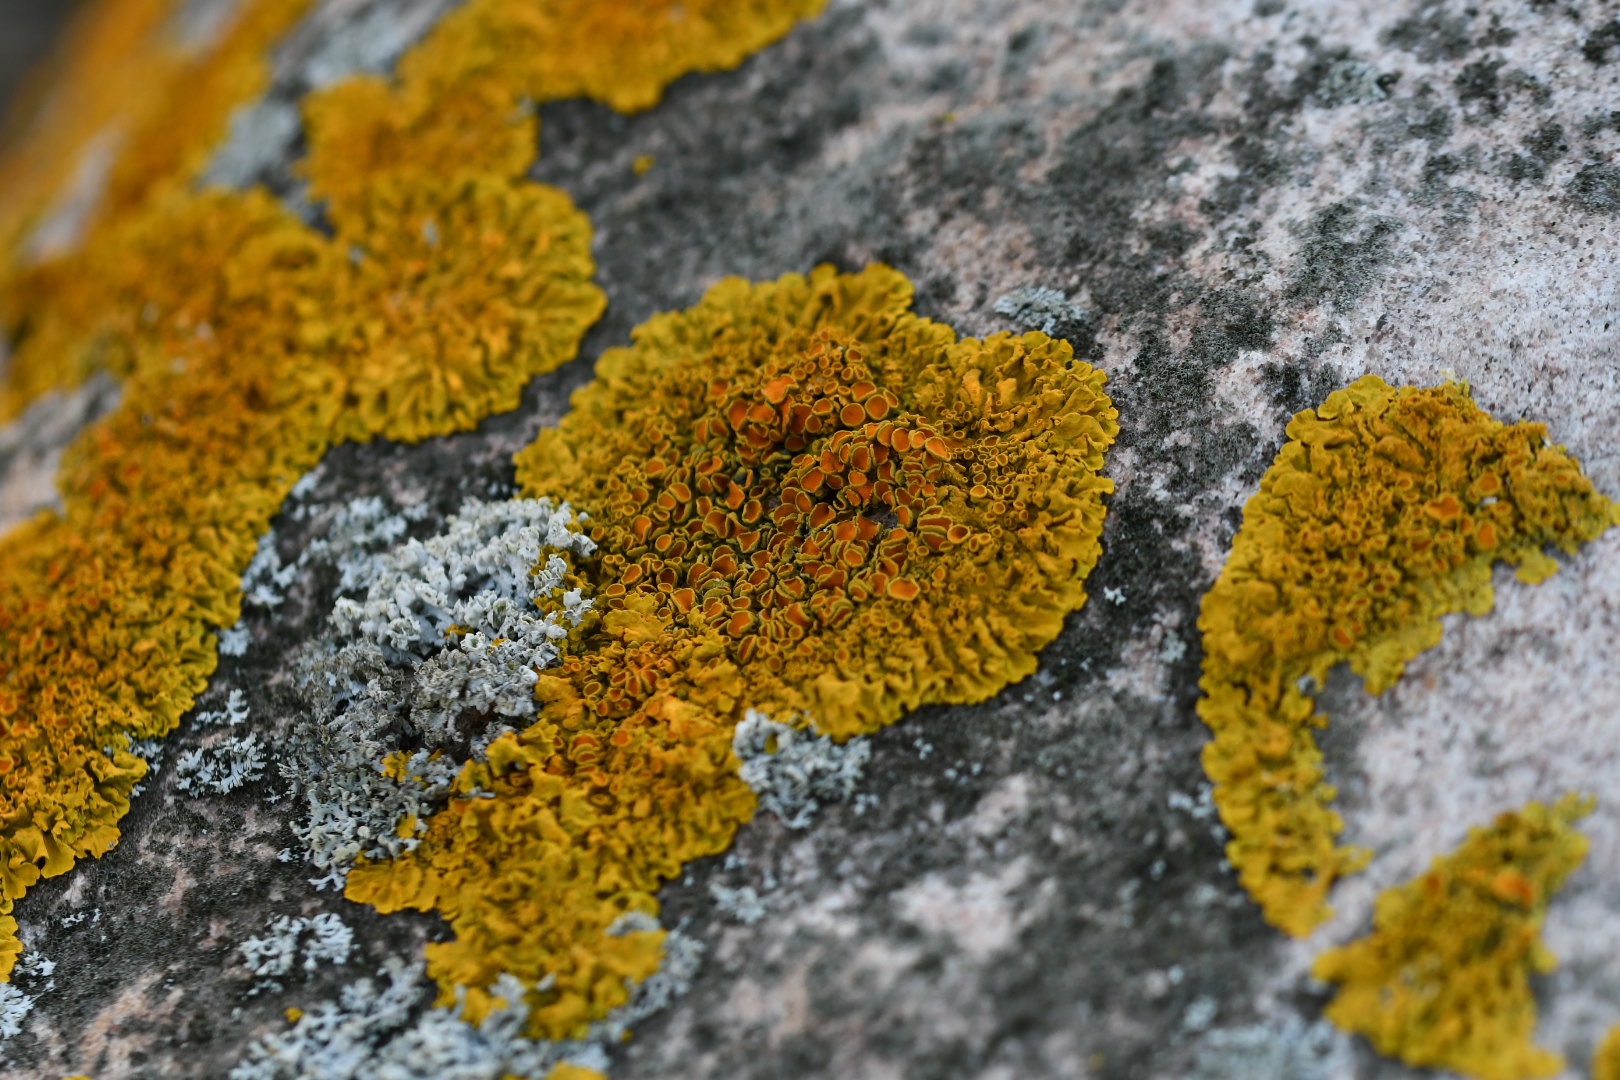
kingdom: Fungi
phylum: Ascomycota
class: Lecanoromycetes
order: Teloschistales
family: Teloschistaceae
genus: Xanthoria
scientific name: Xanthoria parietina
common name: almindelig væggelav
